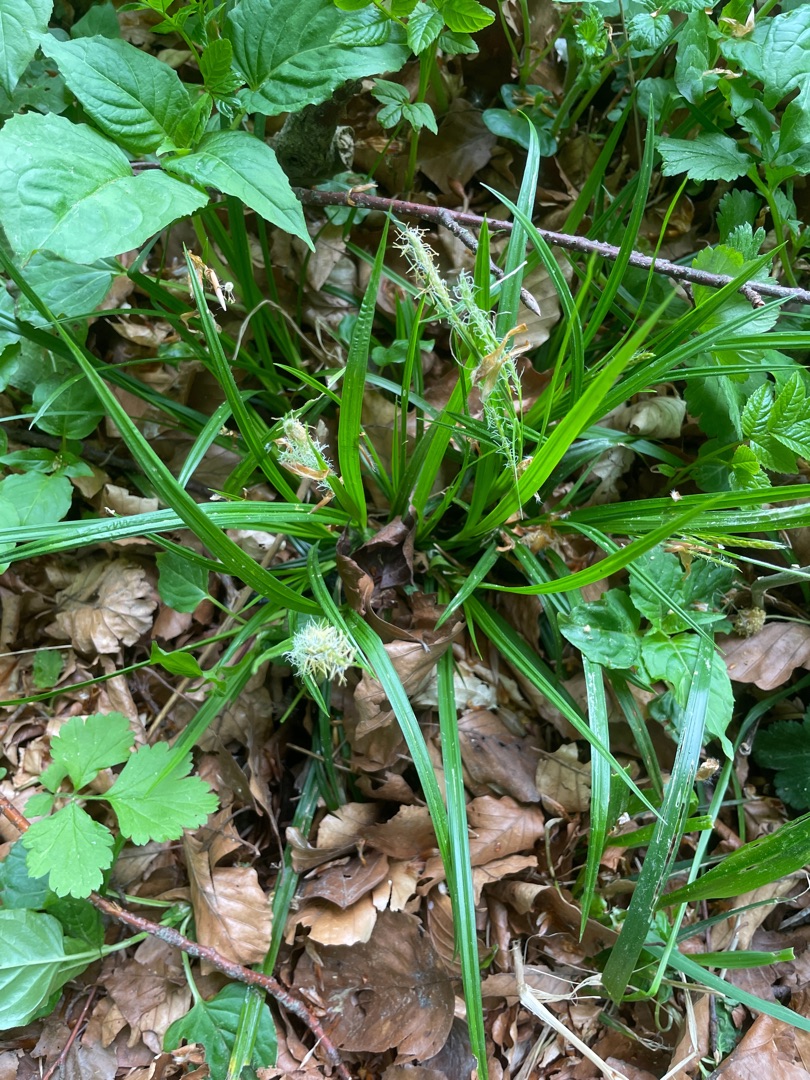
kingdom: Plantae
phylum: Tracheophyta
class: Liliopsida
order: Poales
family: Cyperaceae
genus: Carex
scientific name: Carex sylvatica
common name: Skov-star
